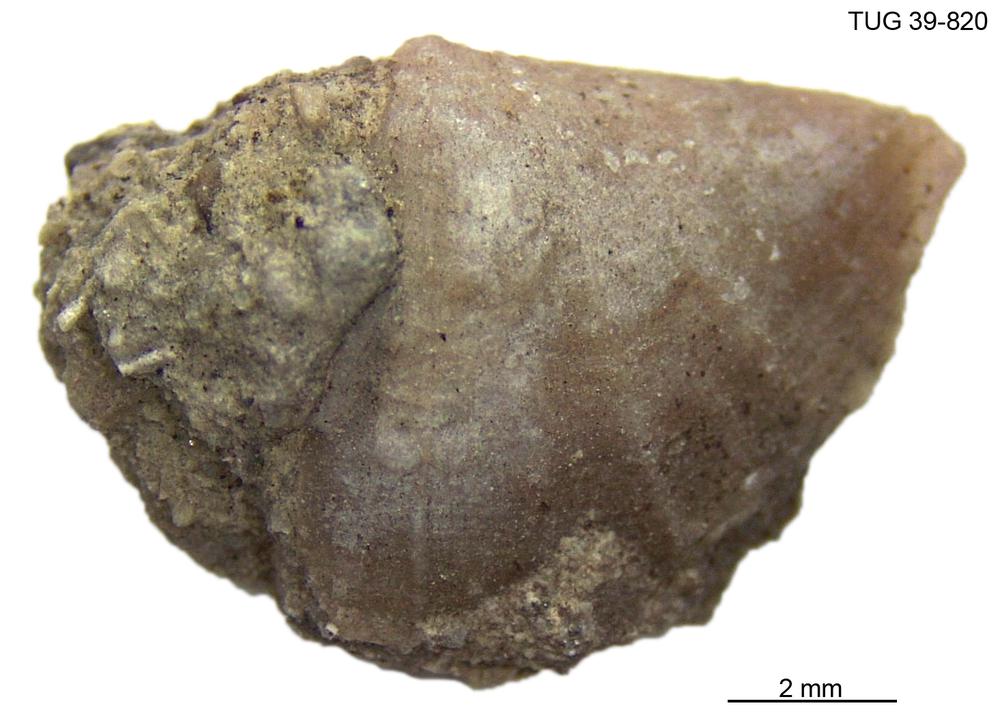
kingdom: Animalia
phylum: Brachiopoda
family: Sowerbyellidae
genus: Sowerbyella
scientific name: Sowerbyella
